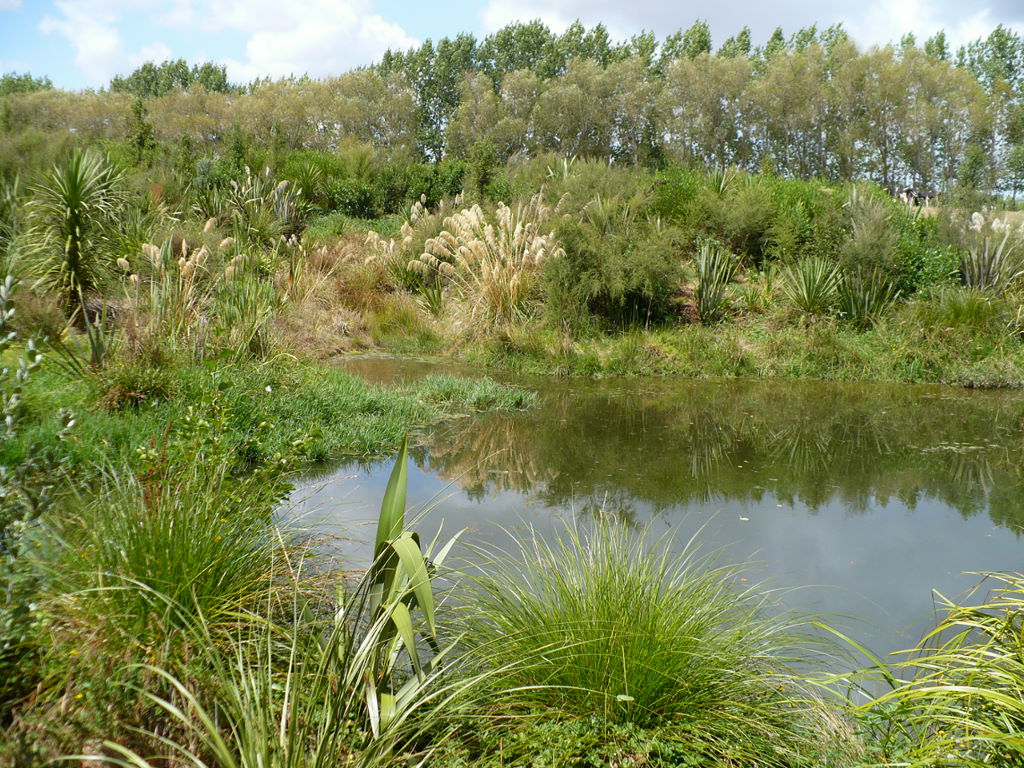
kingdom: Plantae
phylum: Tracheophyta
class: Liliopsida
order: Alismatales
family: Potamogetonaceae
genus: Potamogeton
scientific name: Potamogeton ochreatus
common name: Blunt pondweed
